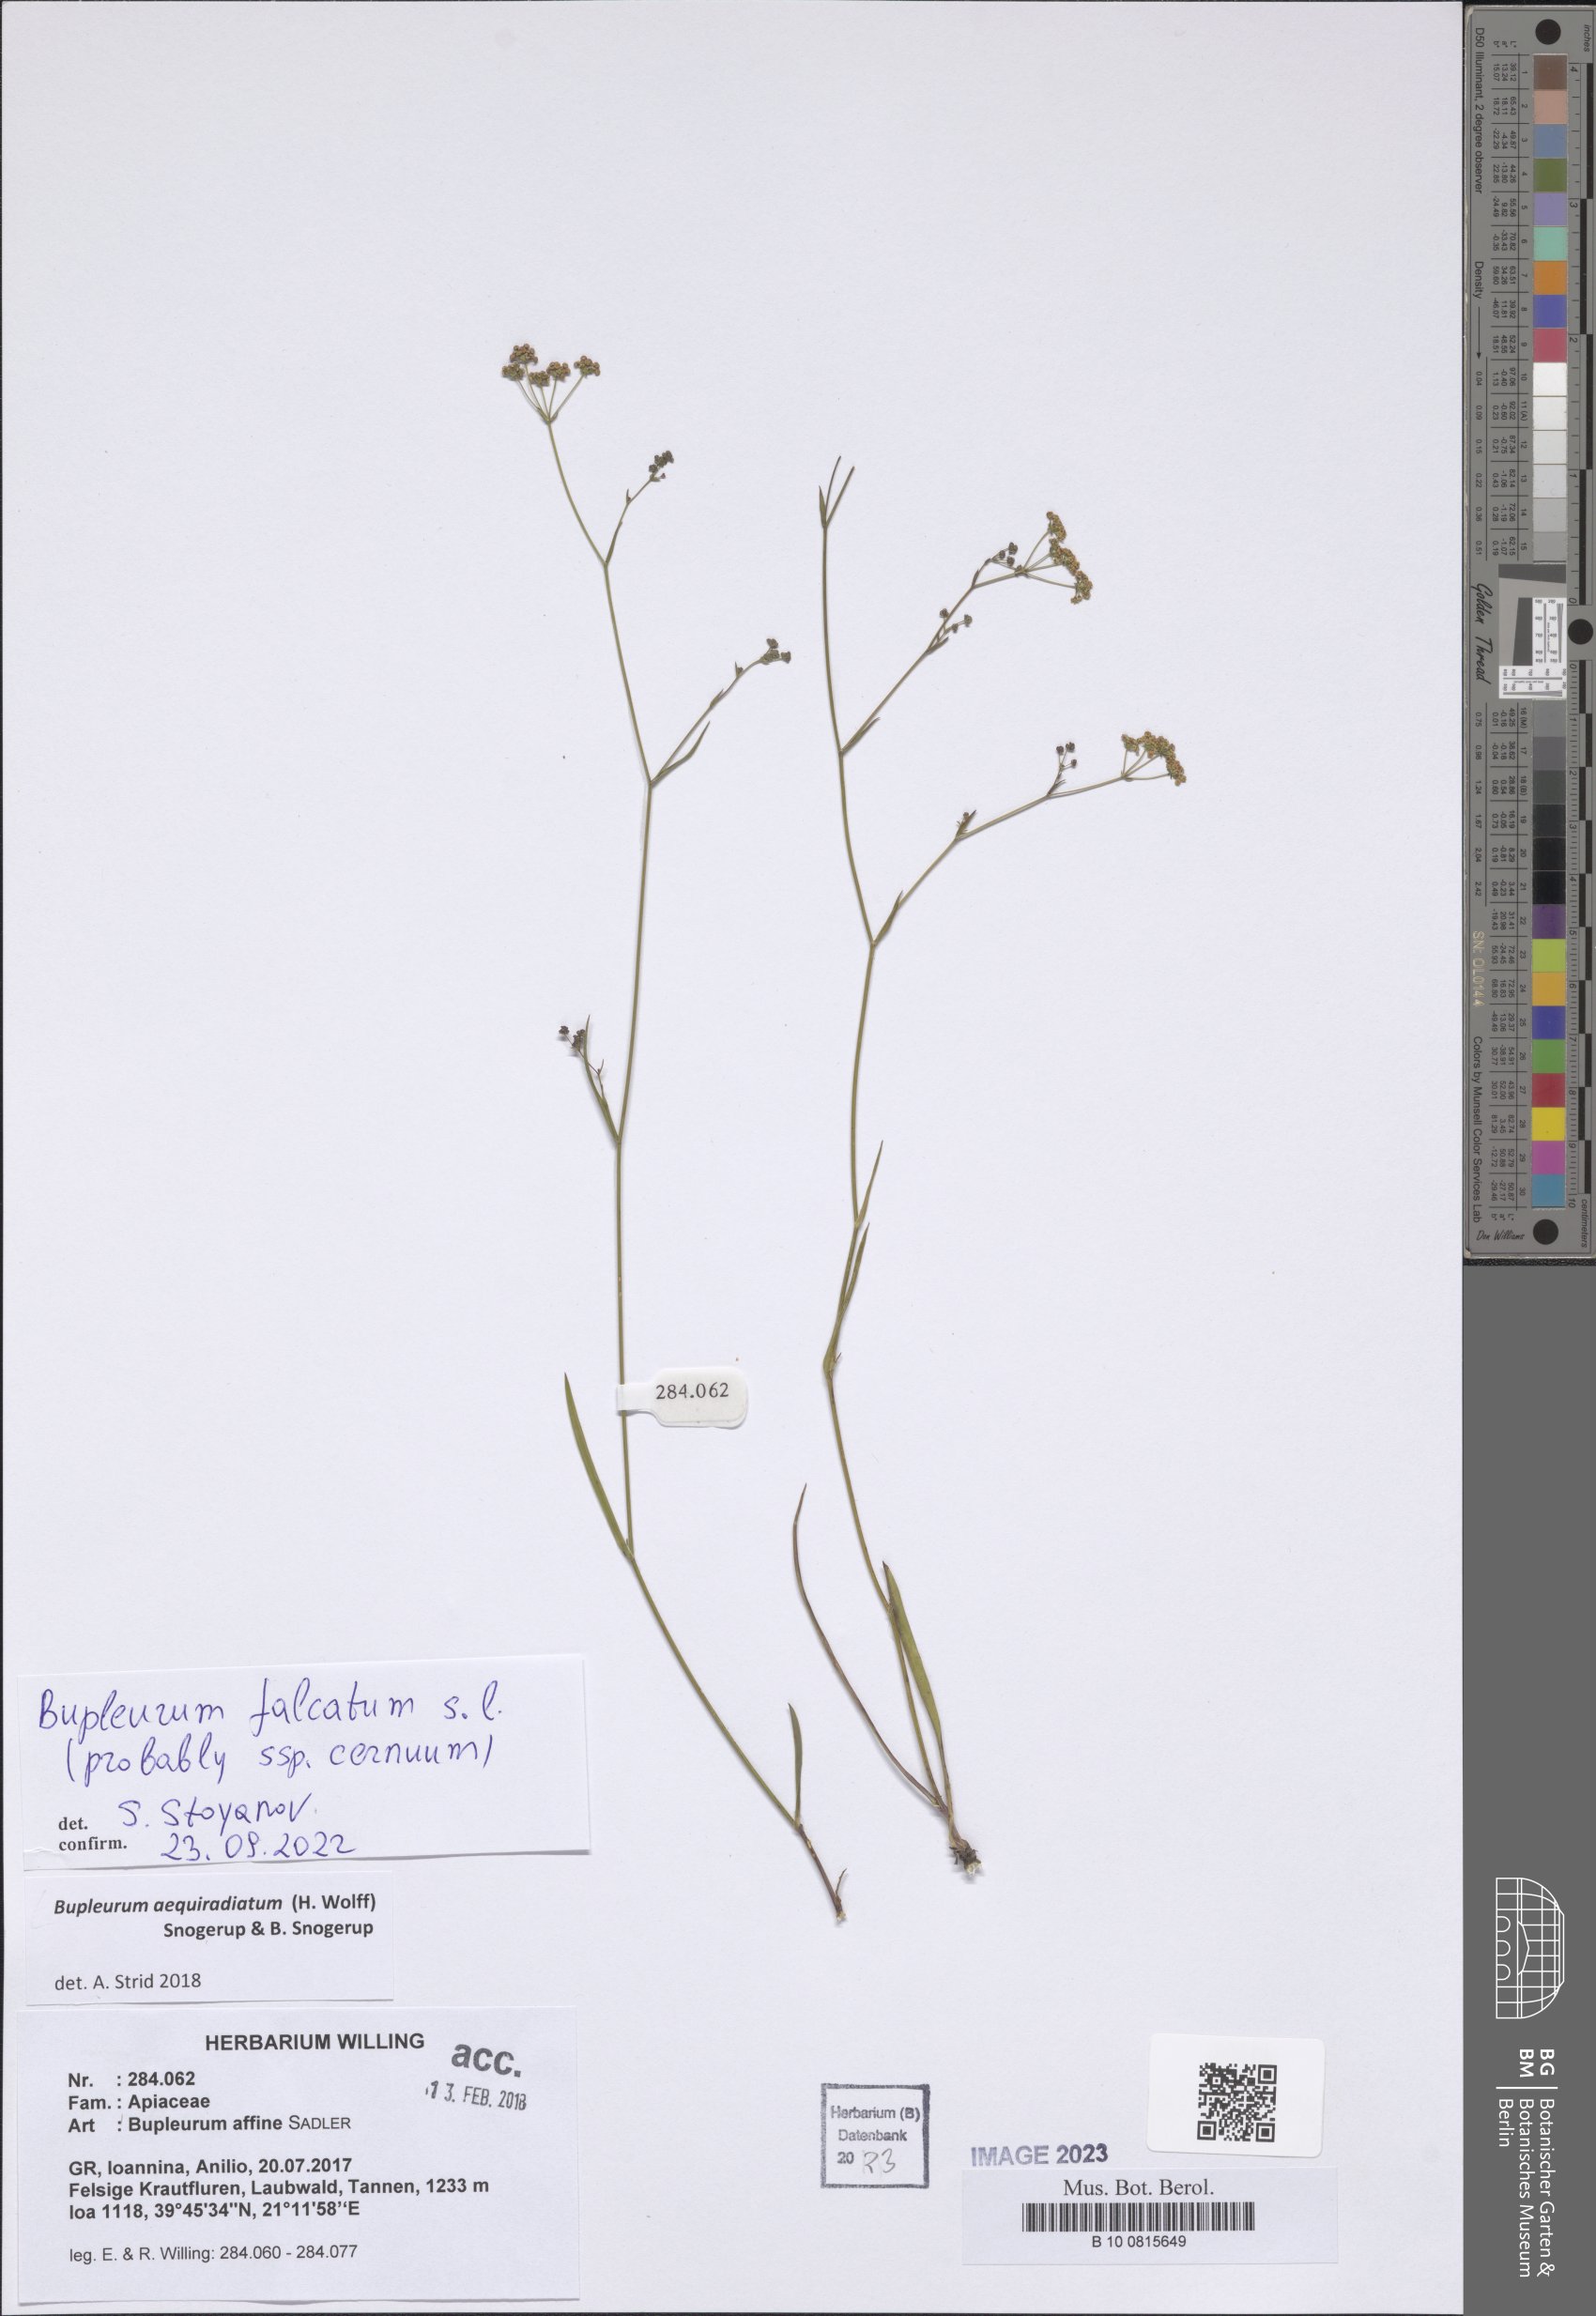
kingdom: Plantae
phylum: Tracheophyta
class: Magnoliopsida
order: Apiales
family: Apiaceae
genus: Bupleurum
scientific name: Bupleurum falcatum
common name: Sickle-leaved hare's-ear
